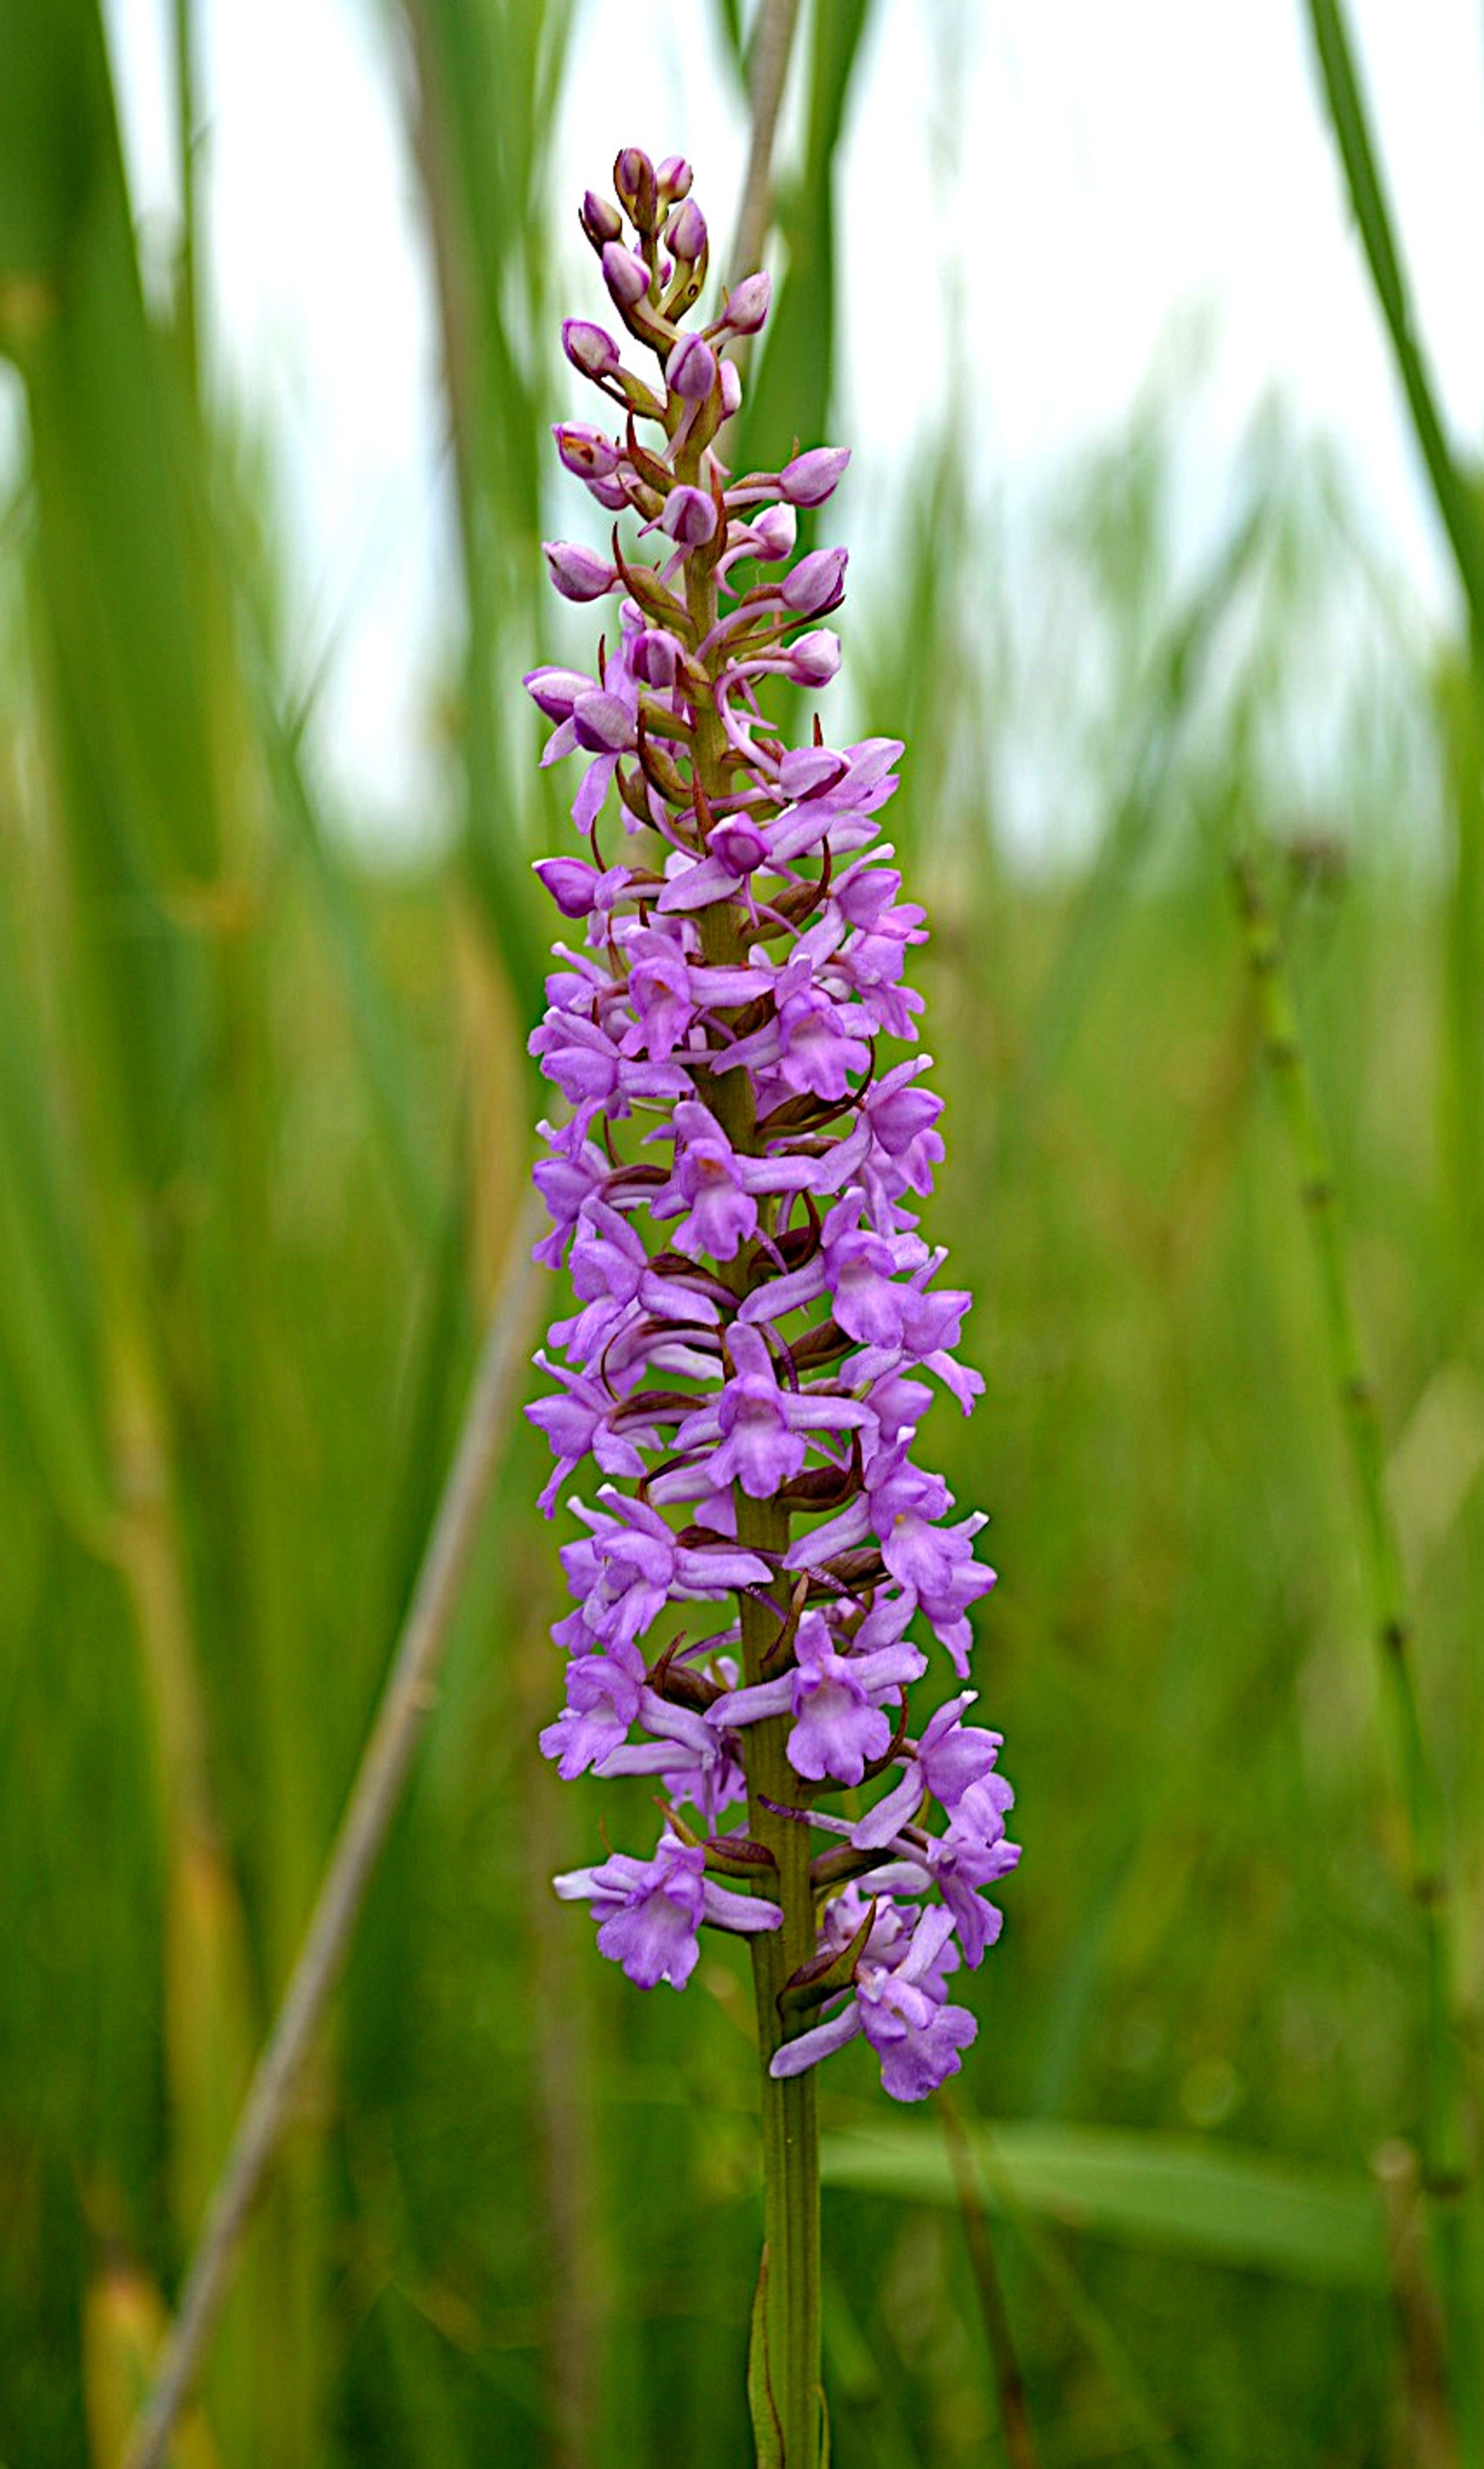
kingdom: Plantae
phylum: Tracheophyta
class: Liliopsida
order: Asparagales
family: Orchidaceae
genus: Gymnadenia
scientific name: Gymnadenia densiflora
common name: Tætblomstret trådspore
